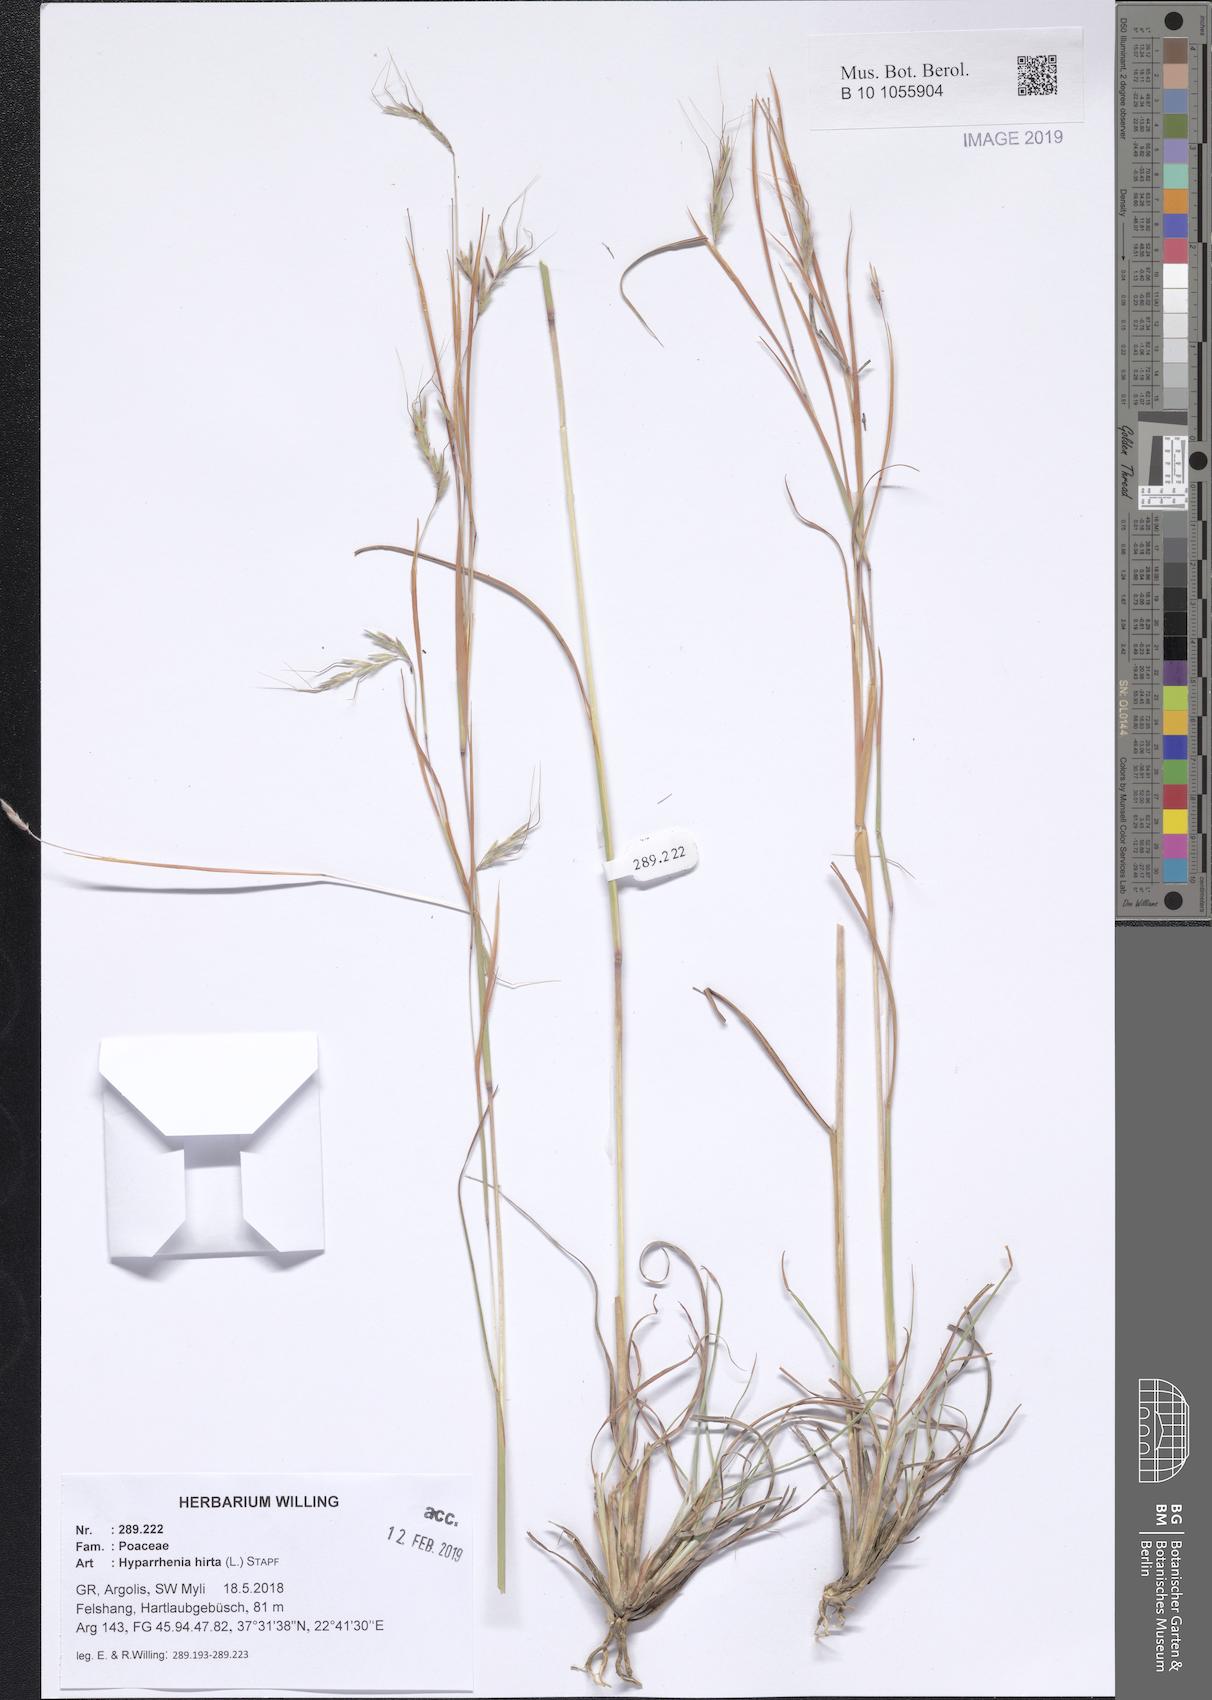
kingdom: Plantae
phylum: Tracheophyta
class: Liliopsida
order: Poales
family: Poaceae
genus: Hyparrhenia
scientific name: Hyparrhenia hirta
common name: Thatching grass
